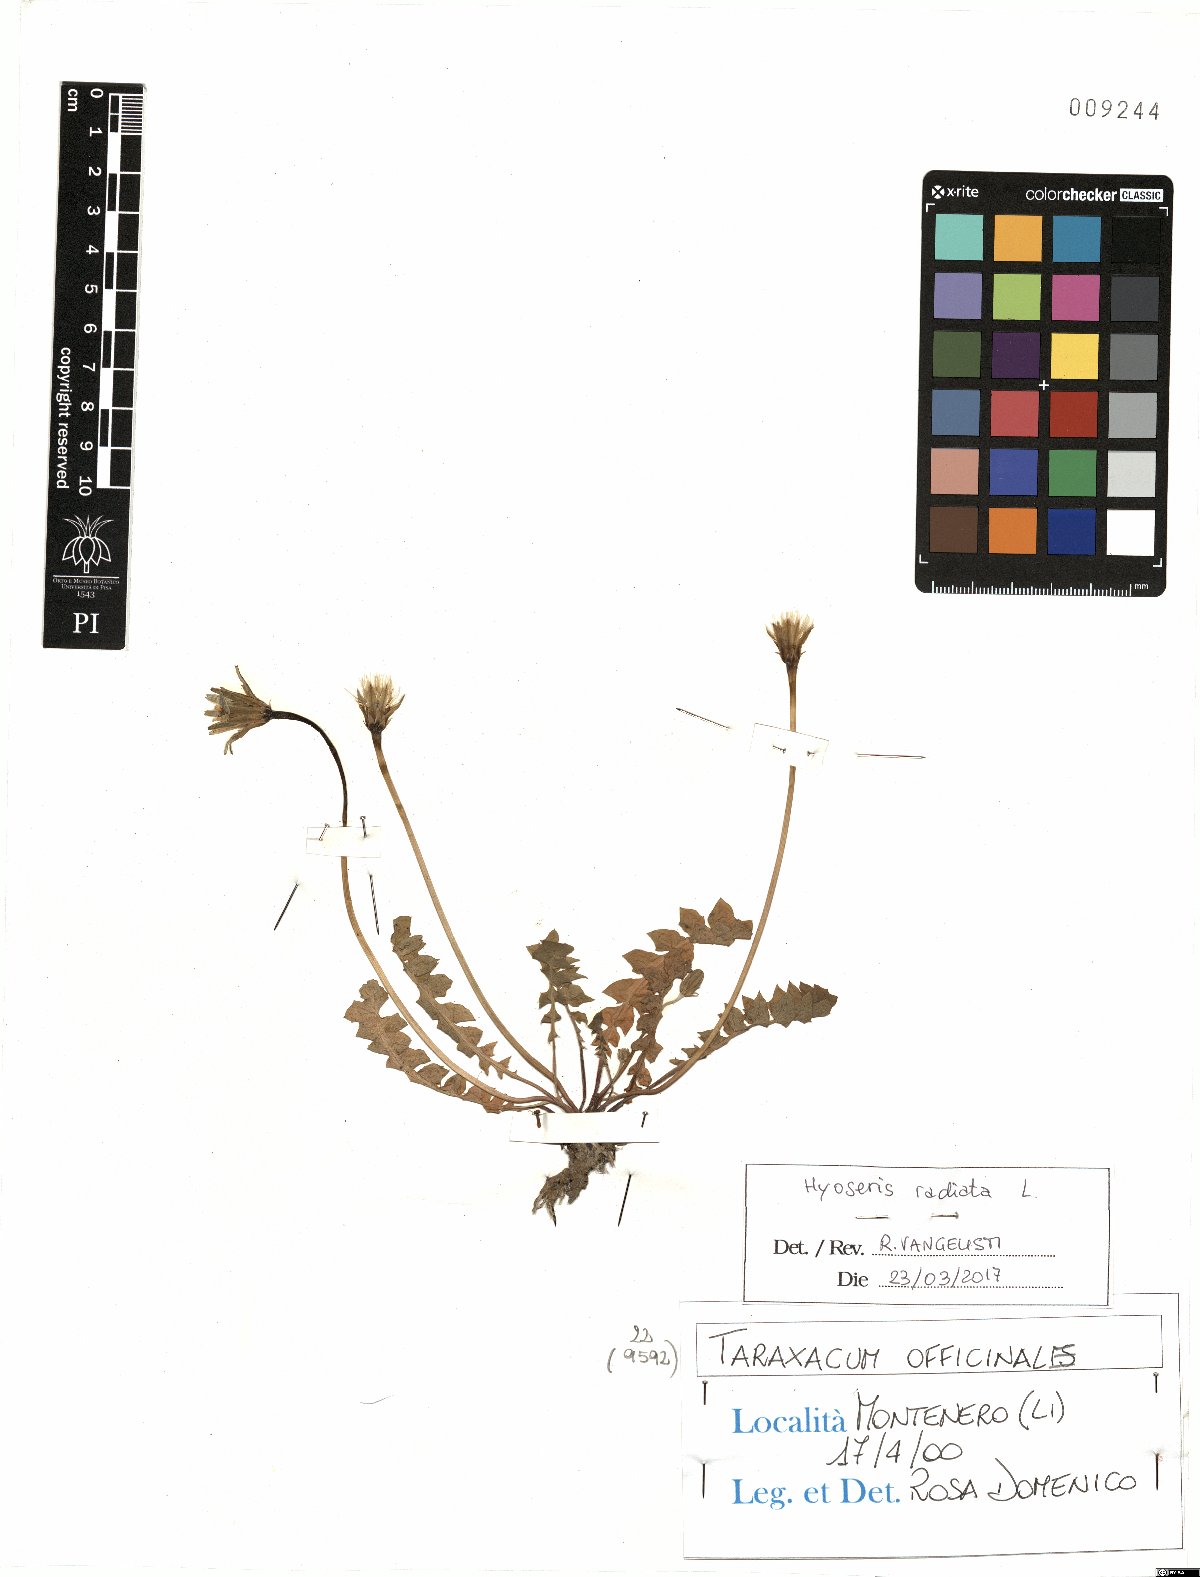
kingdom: Plantae
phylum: Tracheophyta
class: Magnoliopsida
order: Asterales
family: Asteraceae
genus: Hyoseris
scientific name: Hyoseris radiata
